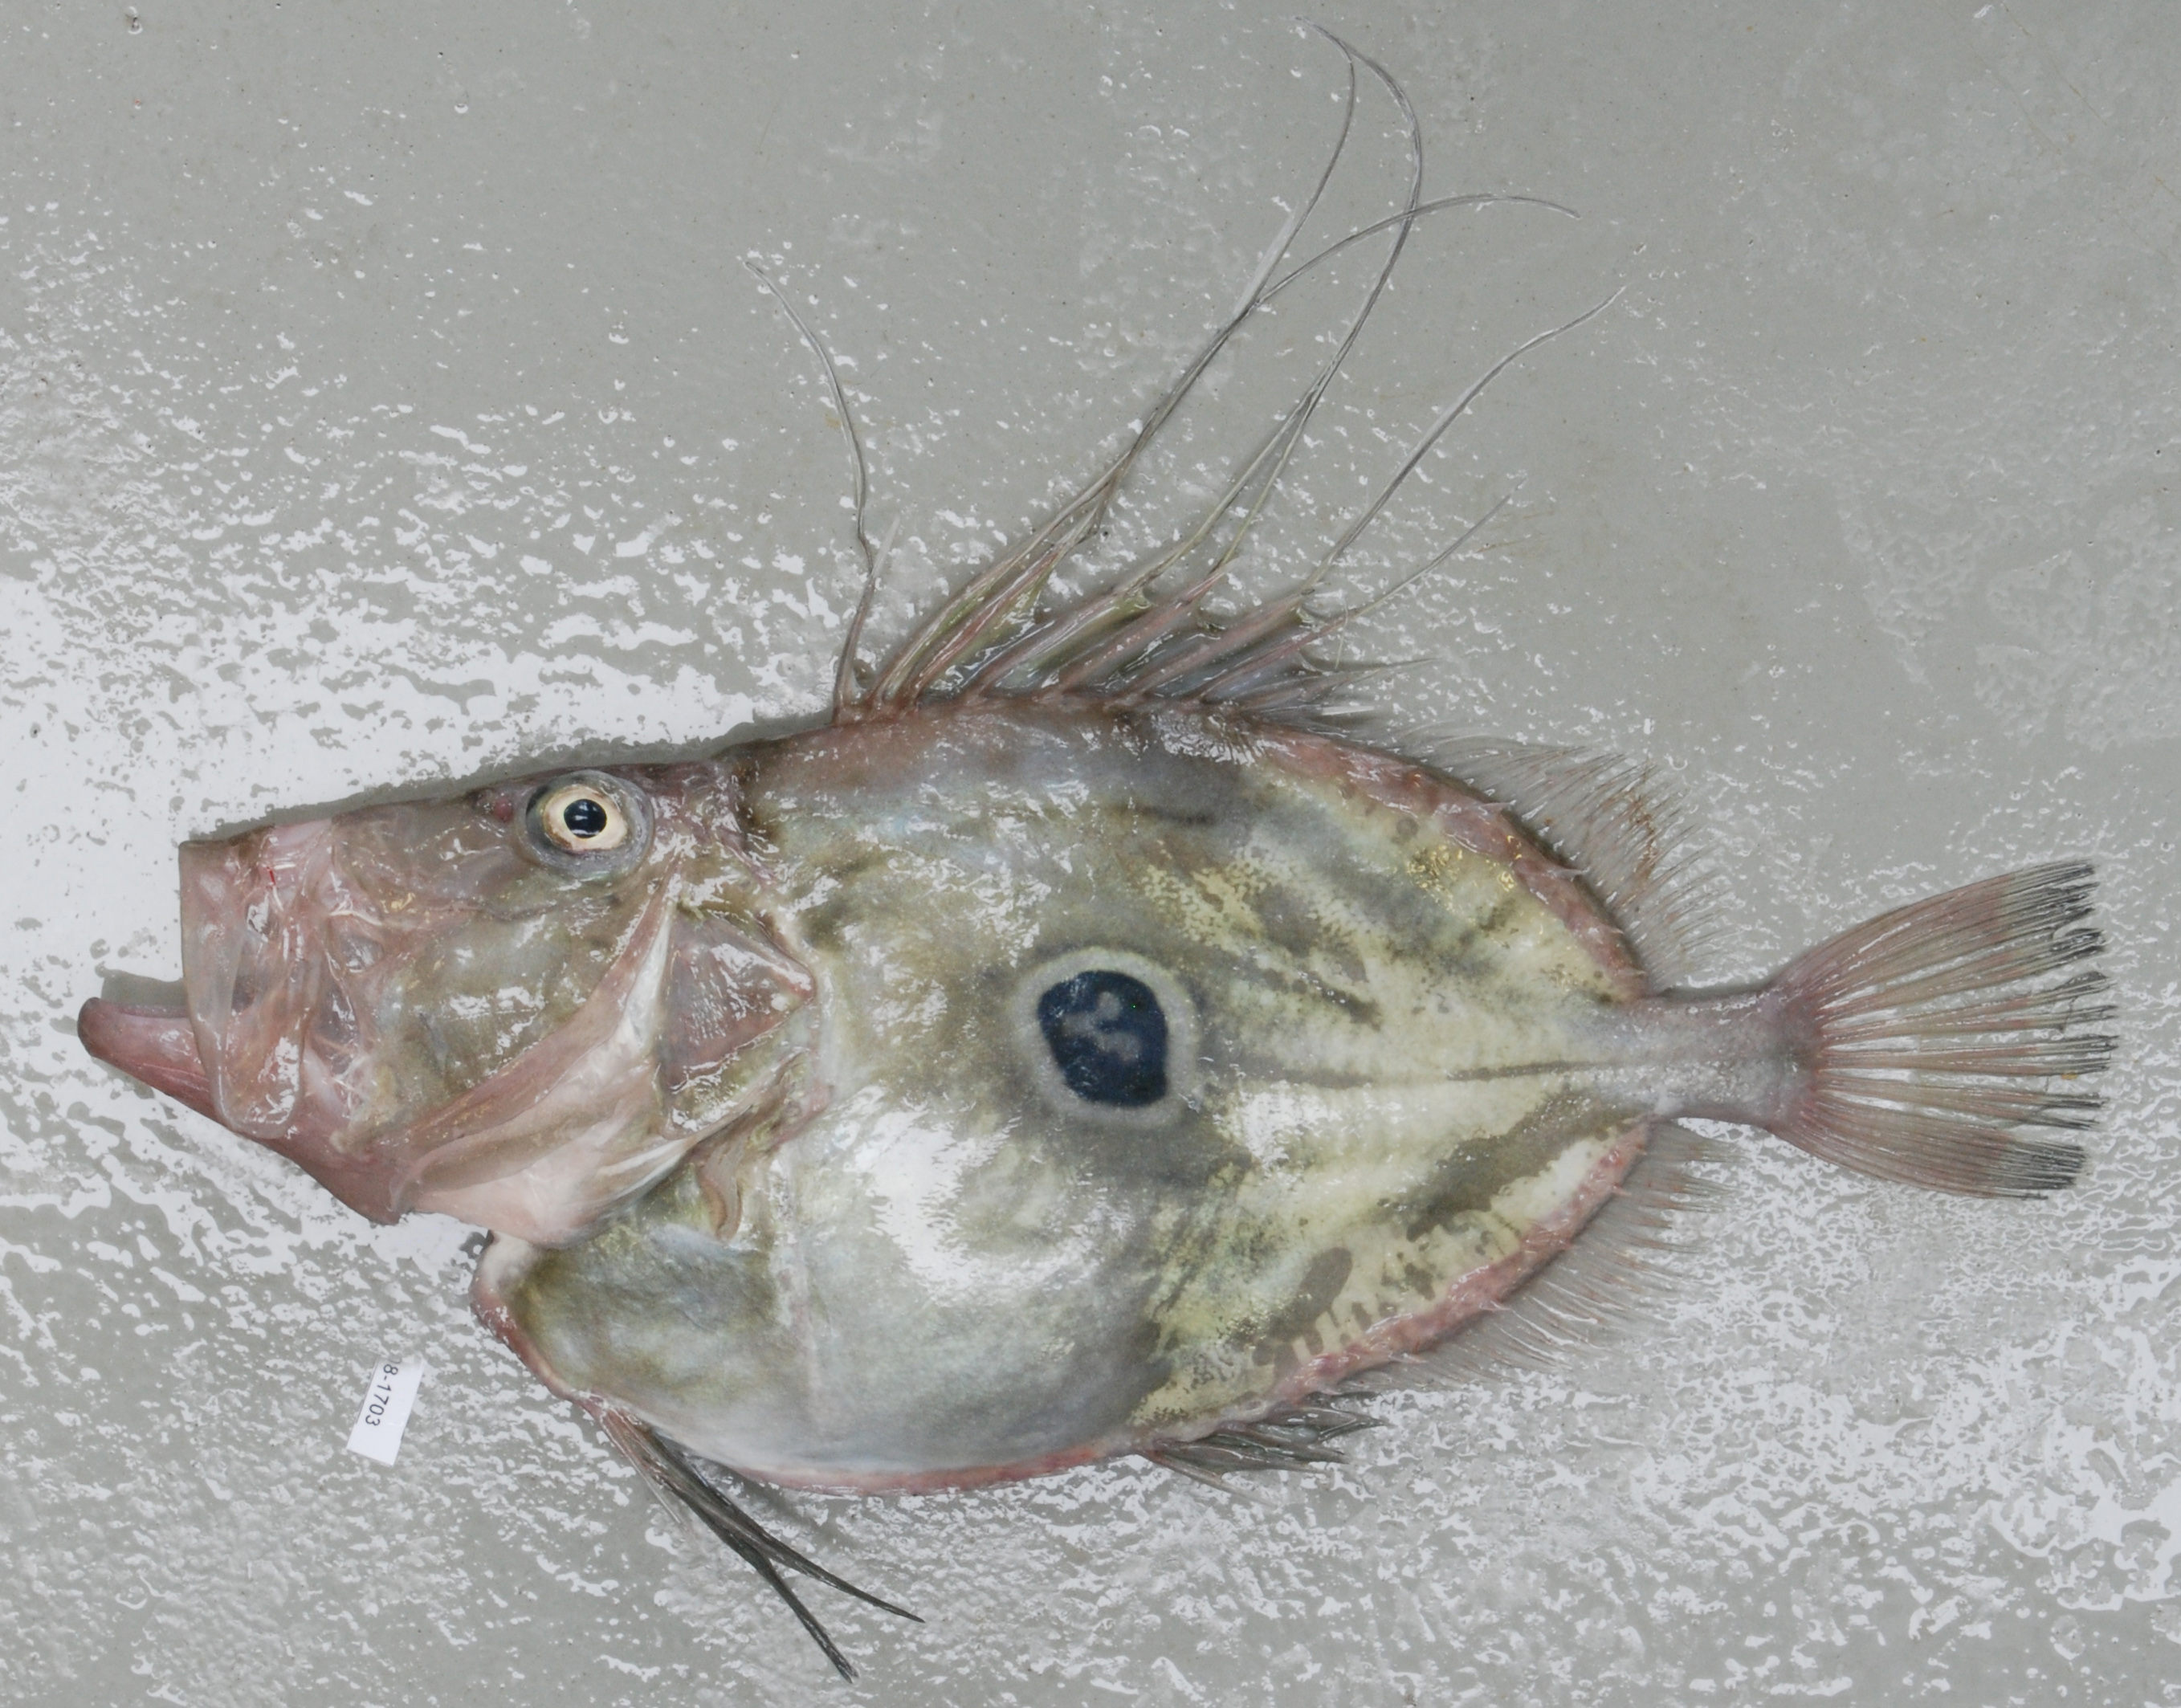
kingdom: Animalia
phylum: Chordata
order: Scorpaeniformes
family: Dactylopteridae
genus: Dactyloptena
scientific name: Dactyloptena orientalis
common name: Flying gurnard
